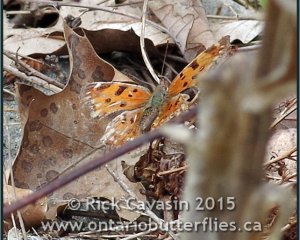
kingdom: Animalia
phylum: Arthropoda
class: Insecta
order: Lepidoptera
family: Nymphalidae
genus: Polygonia
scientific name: Polygonia comma
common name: Eastern Comma
